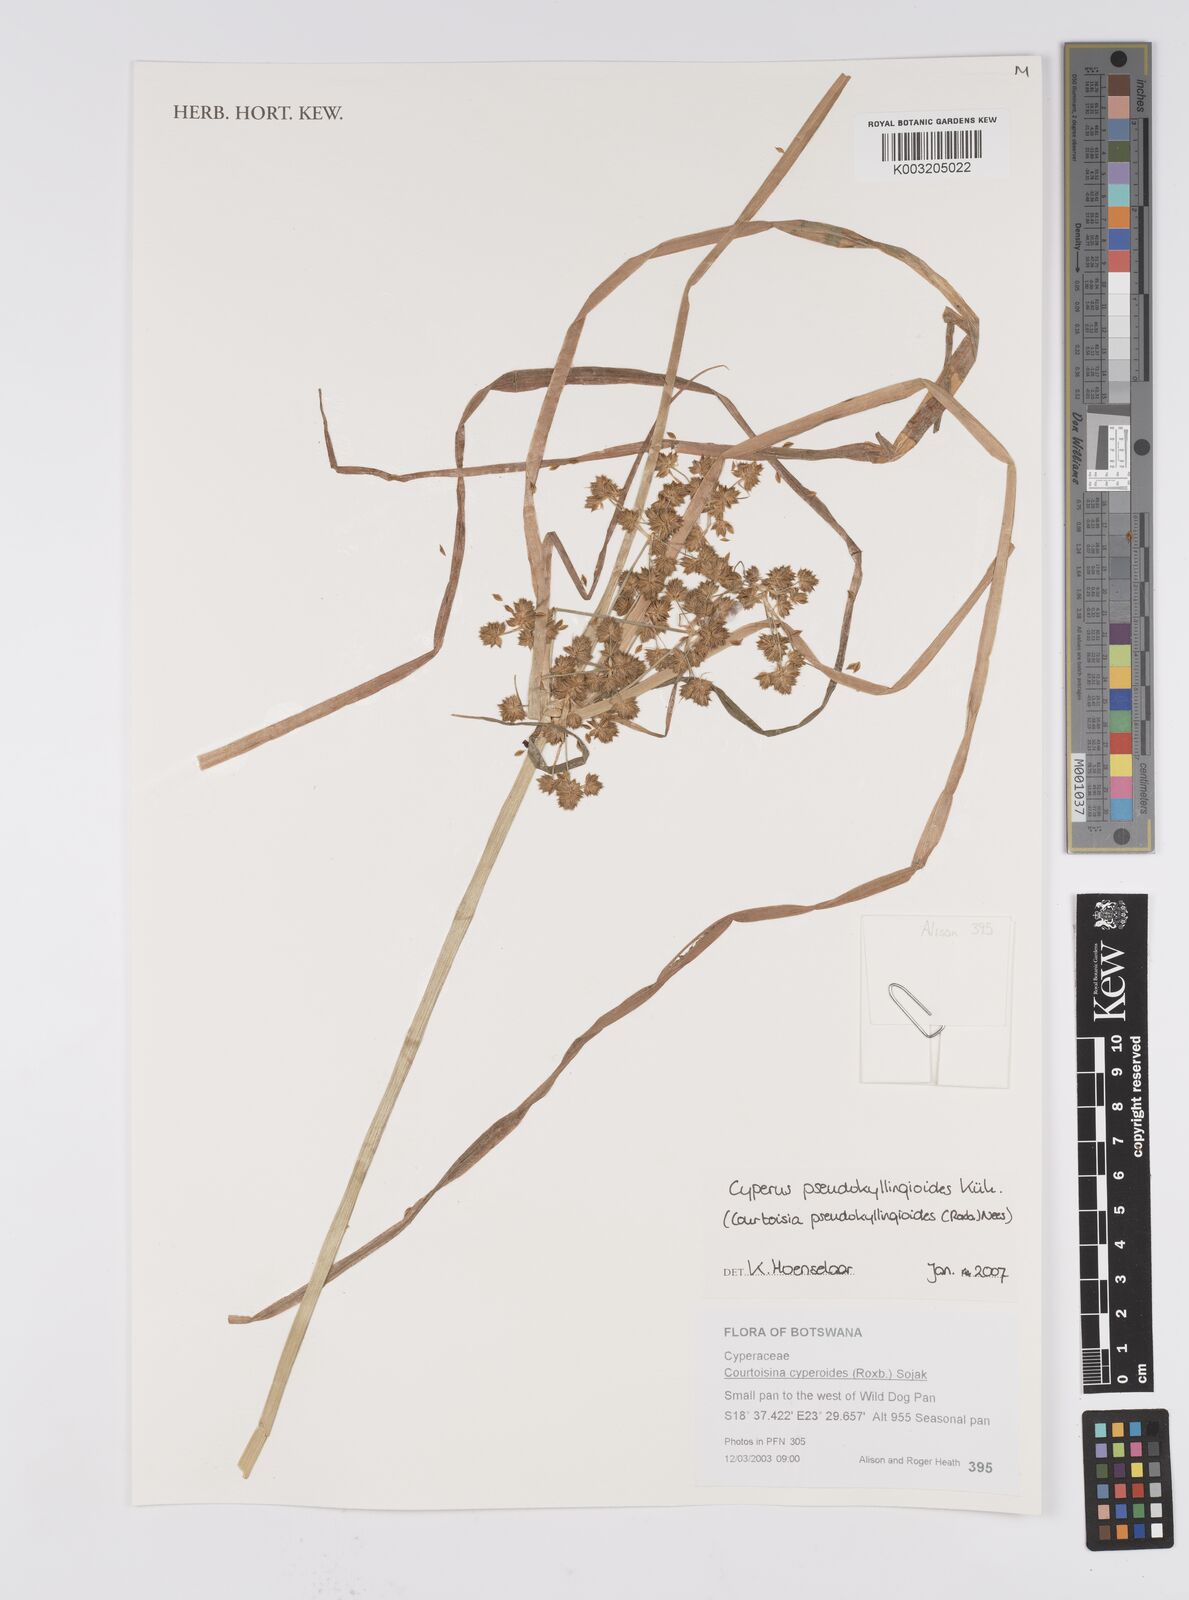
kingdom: Plantae
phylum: Tracheophyta
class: Liliopsida
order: Poales
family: Cyperaceae
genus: Cyperus
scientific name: Cyperus cyperoides
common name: Pacific island flat sedge
